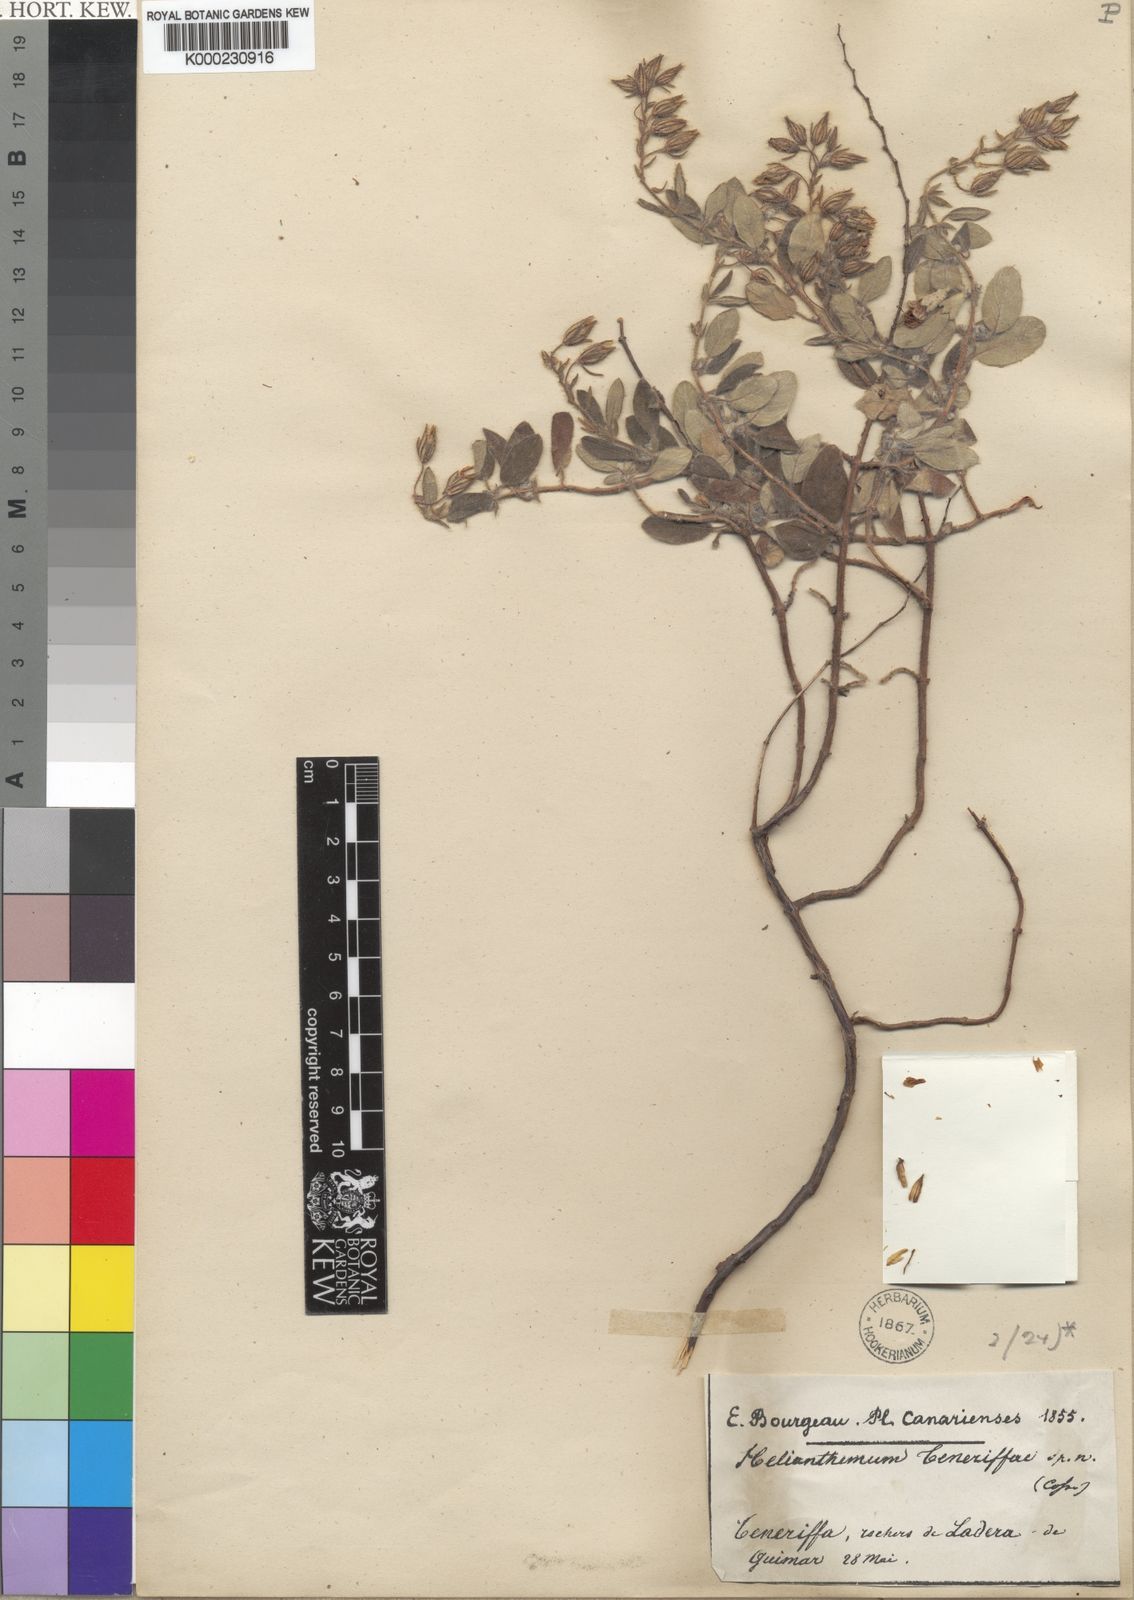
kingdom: Plantae
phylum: Tracheophyta
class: Magnoliopsida
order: Malvales
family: Cistaceae
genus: Helianthemum
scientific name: Helianthemum teneriffae
